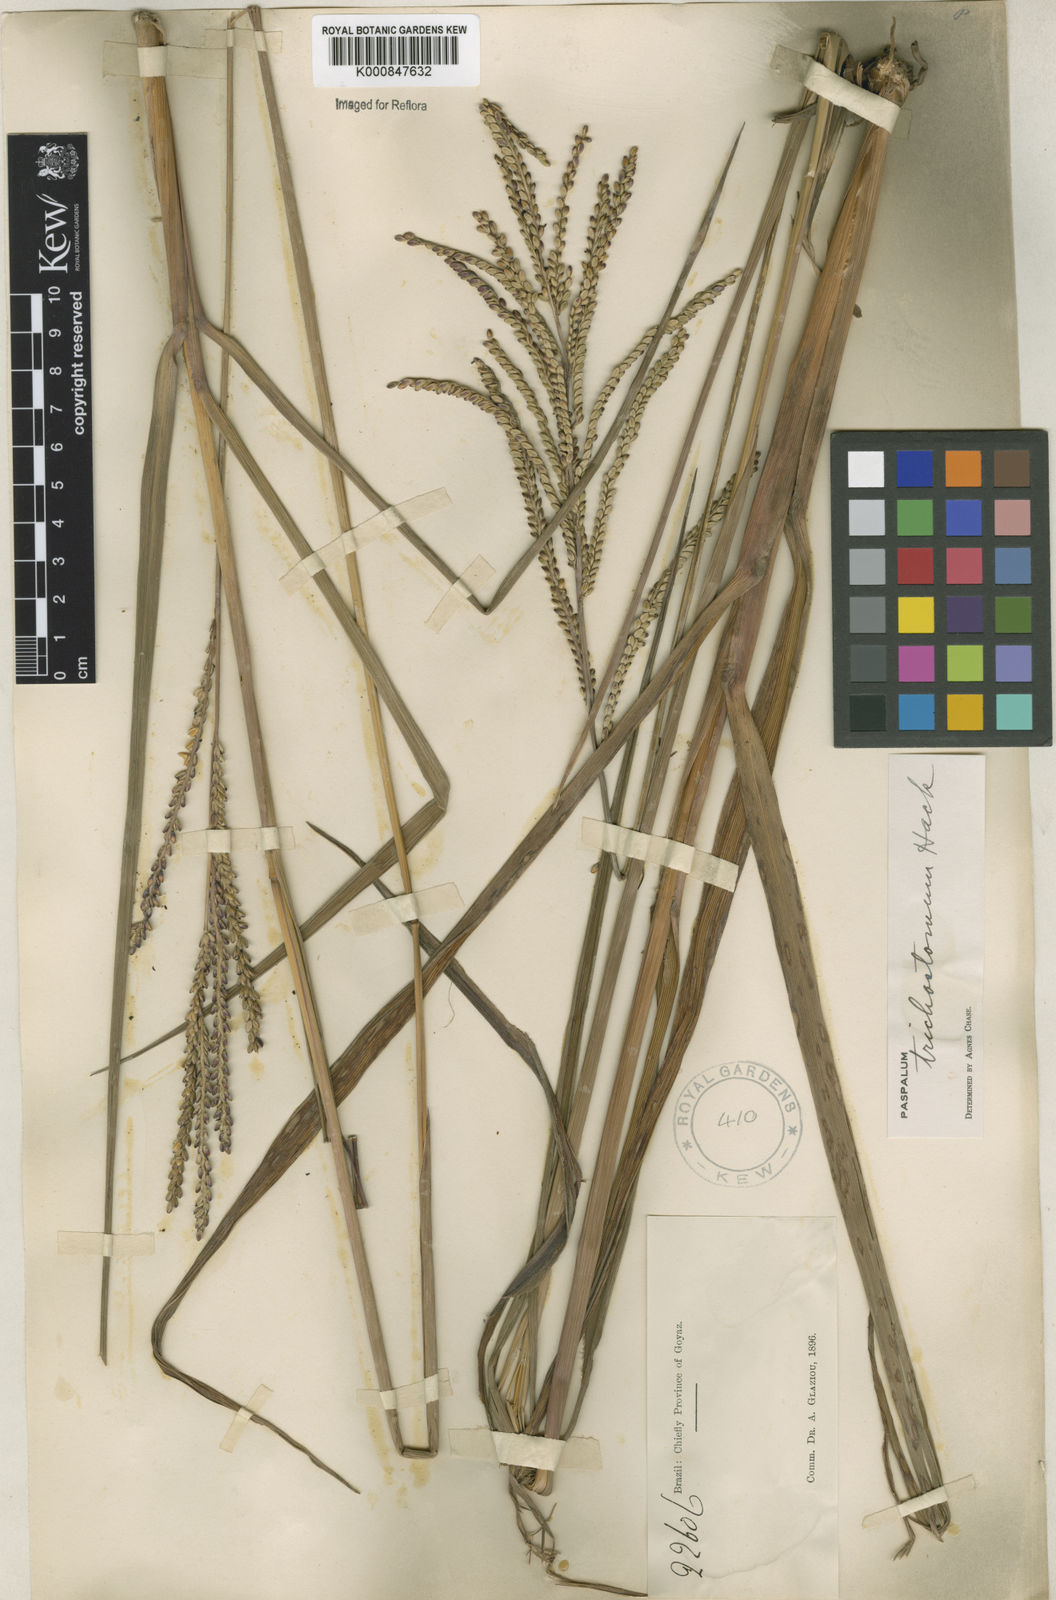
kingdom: Plantae
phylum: Tracheophyta
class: Liliopsida
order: Poales
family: Poaceae
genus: Paspalum
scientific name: Paspalum
